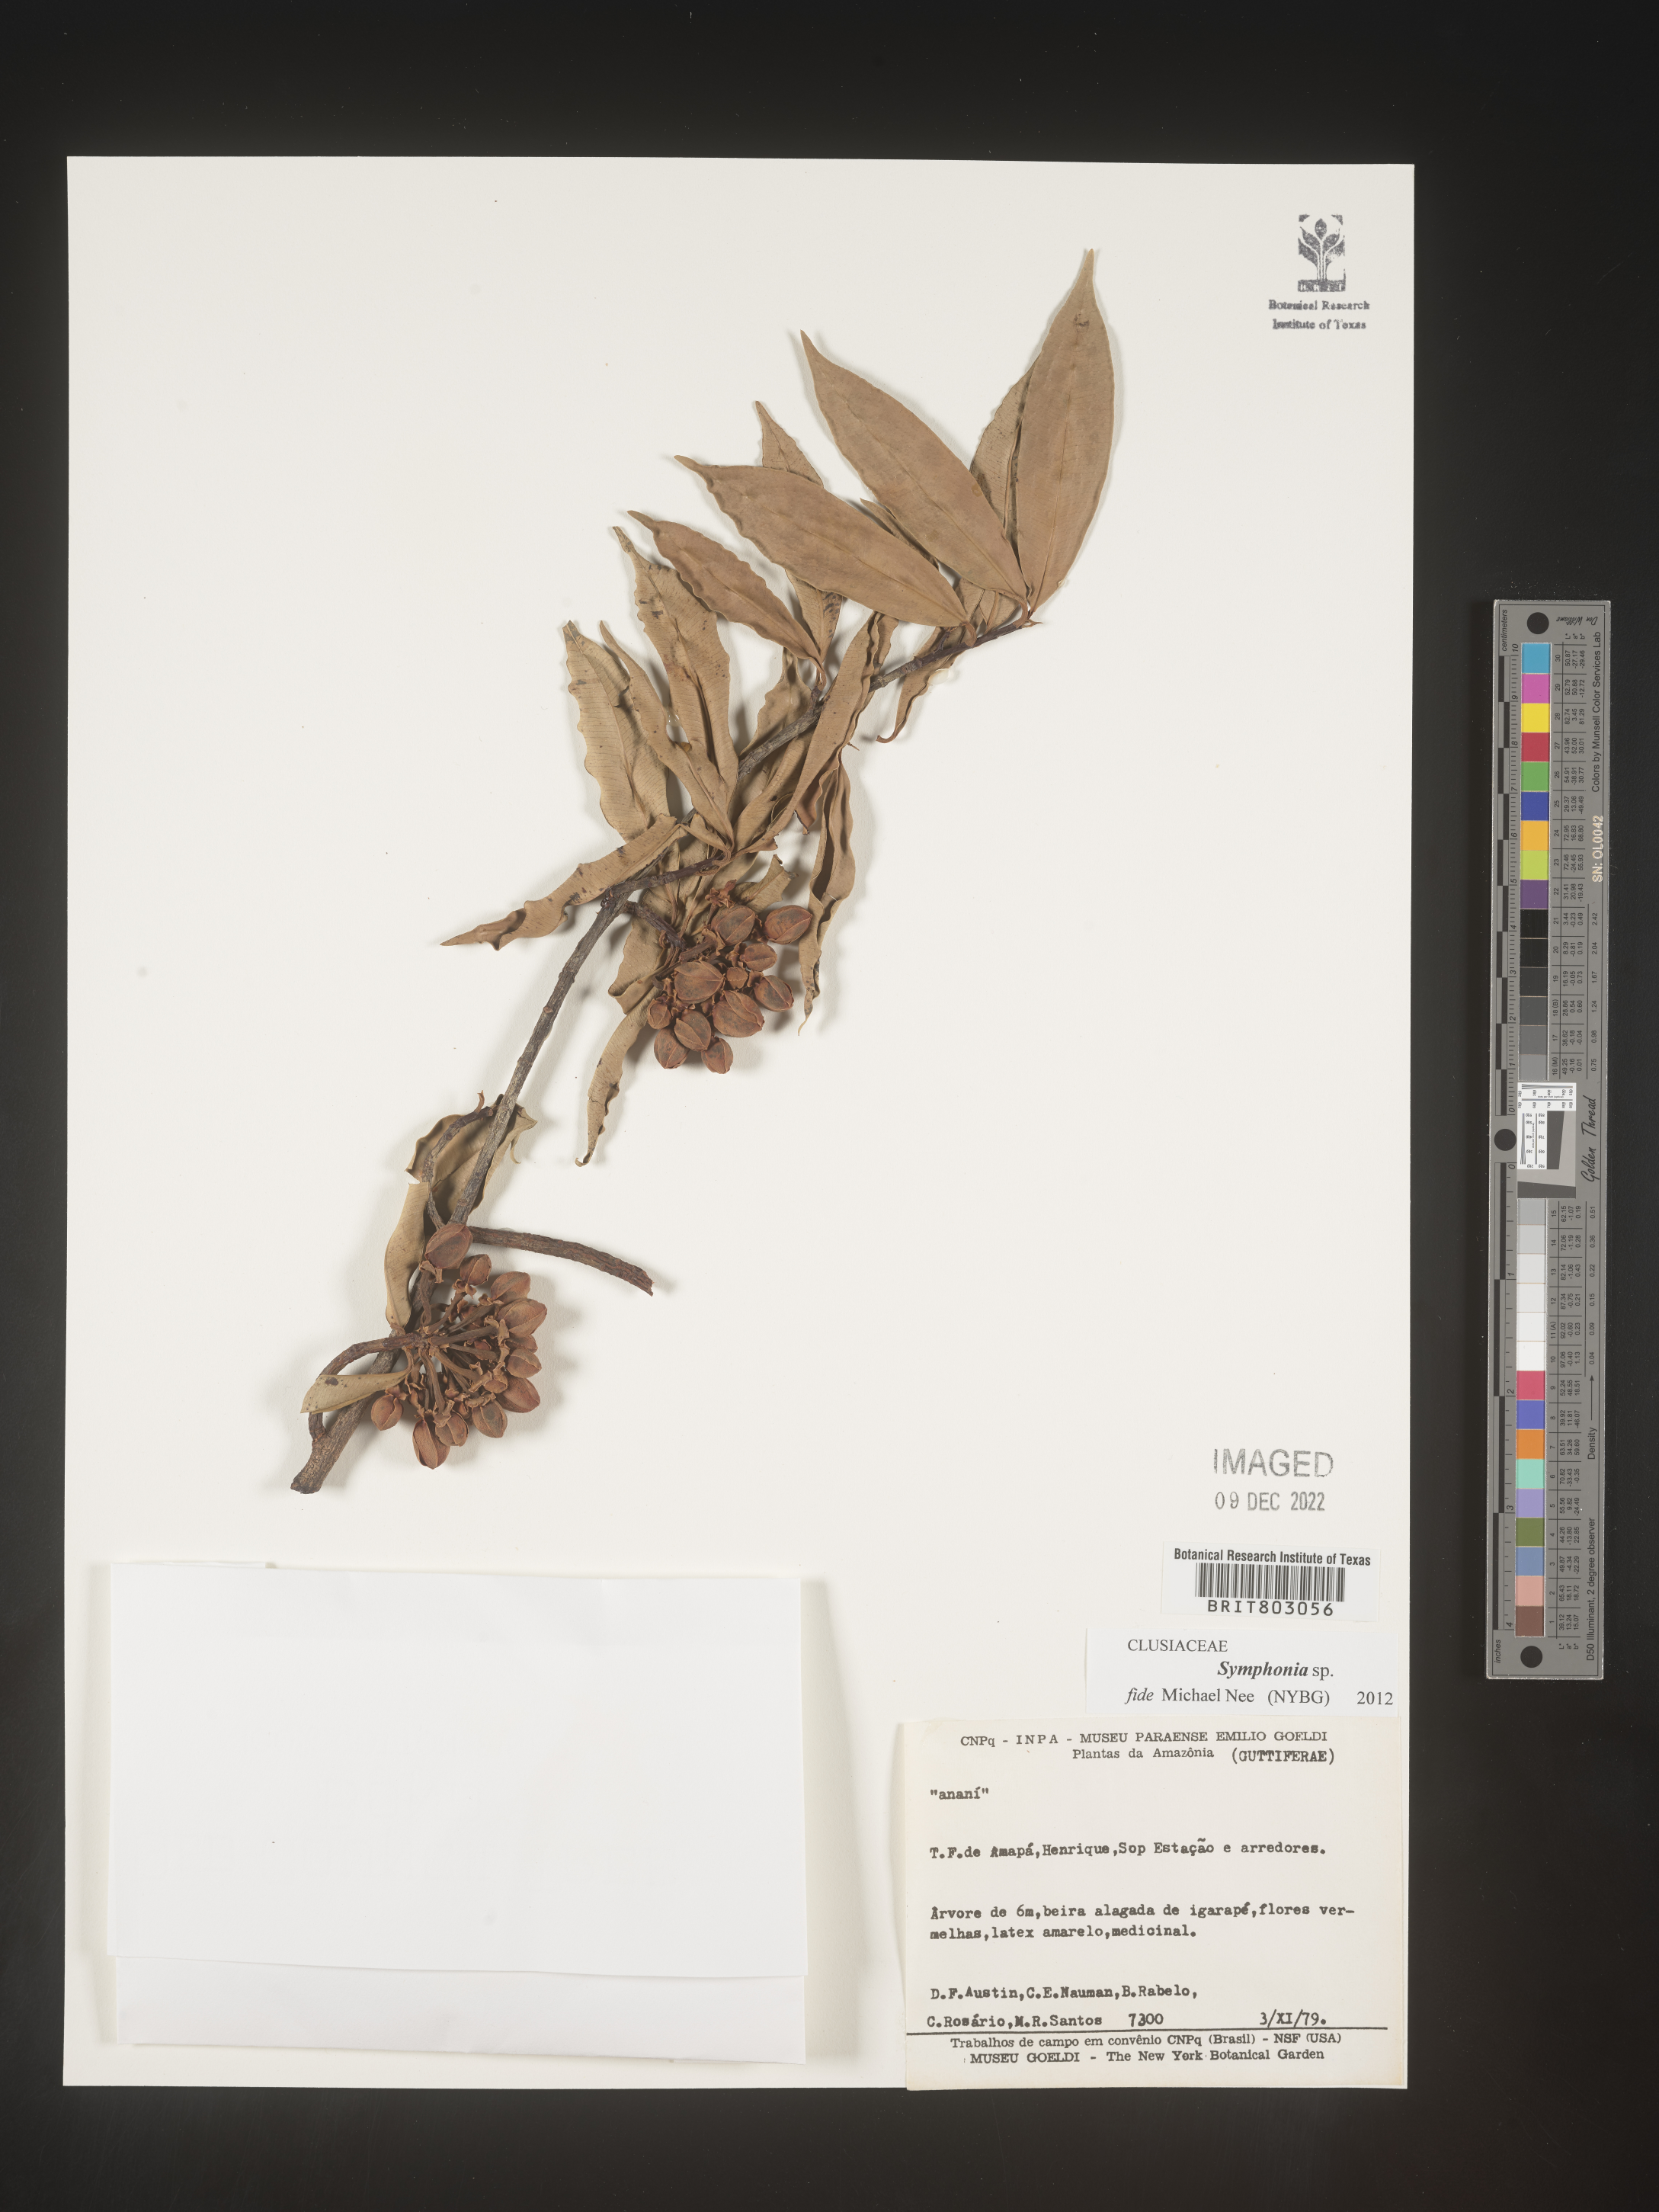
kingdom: Plantae
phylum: Tracheophyta
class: Magnoliopsida
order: Malpighiales
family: Clusiaceae
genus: Symphonia
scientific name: Symphonia
